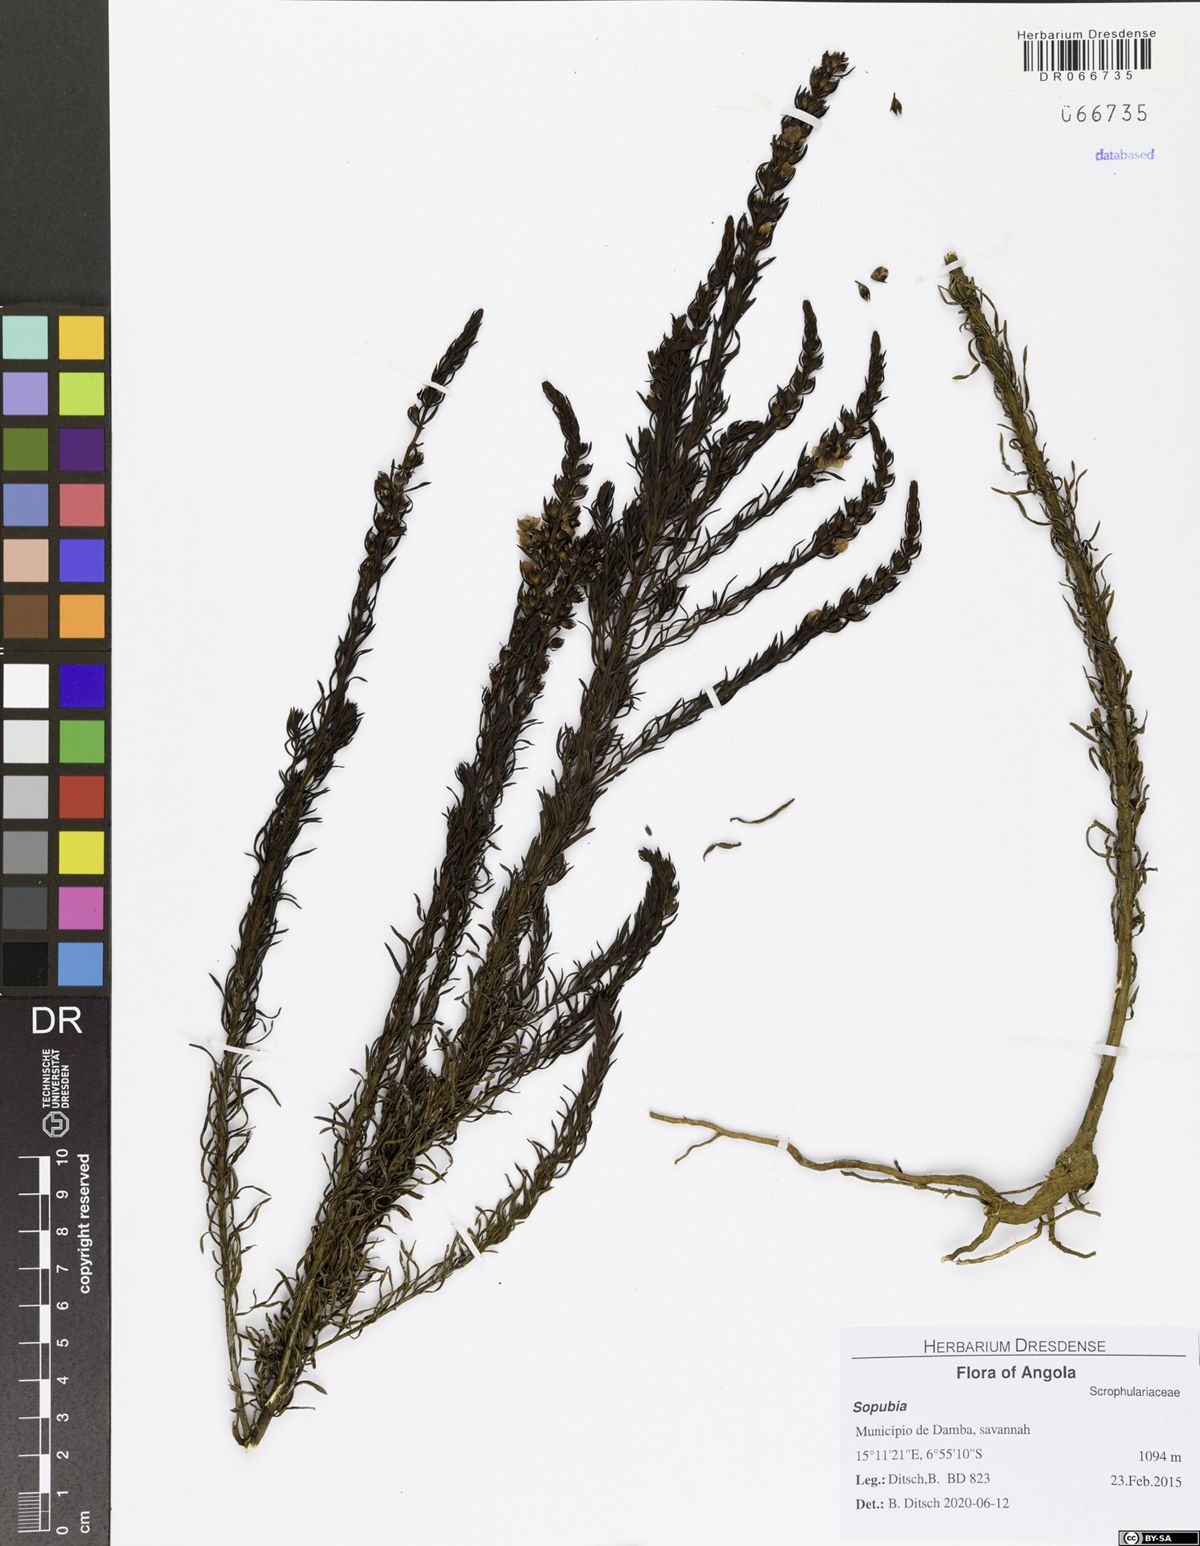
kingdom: Plantae
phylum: Tracheophyta
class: Magnoliopsida
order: Lamiales
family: Orobanchaceae
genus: Sopubia
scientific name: Sopubia ramosa
